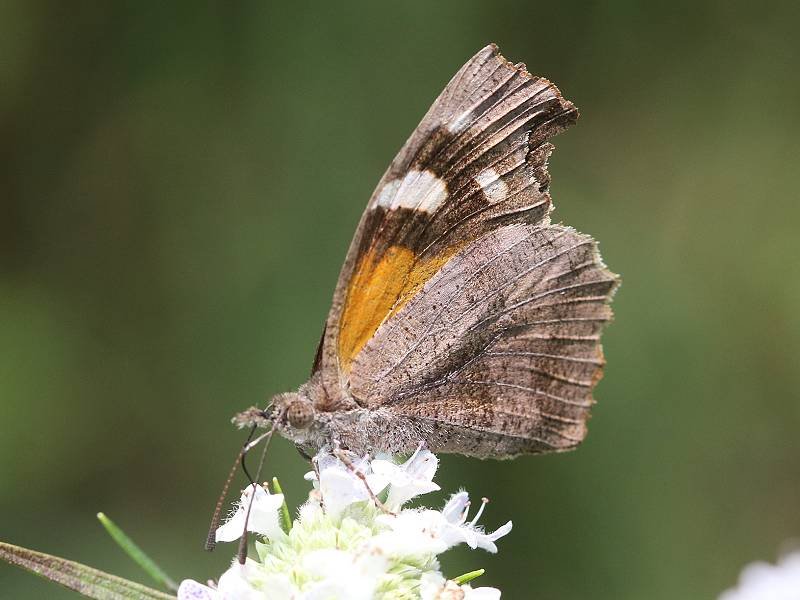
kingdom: Animalia
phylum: Arthropoda
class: Insecta
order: Lepidoptera
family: Nymphalidae
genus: Libytheana
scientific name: Libytheana carinenta
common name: American Snout
